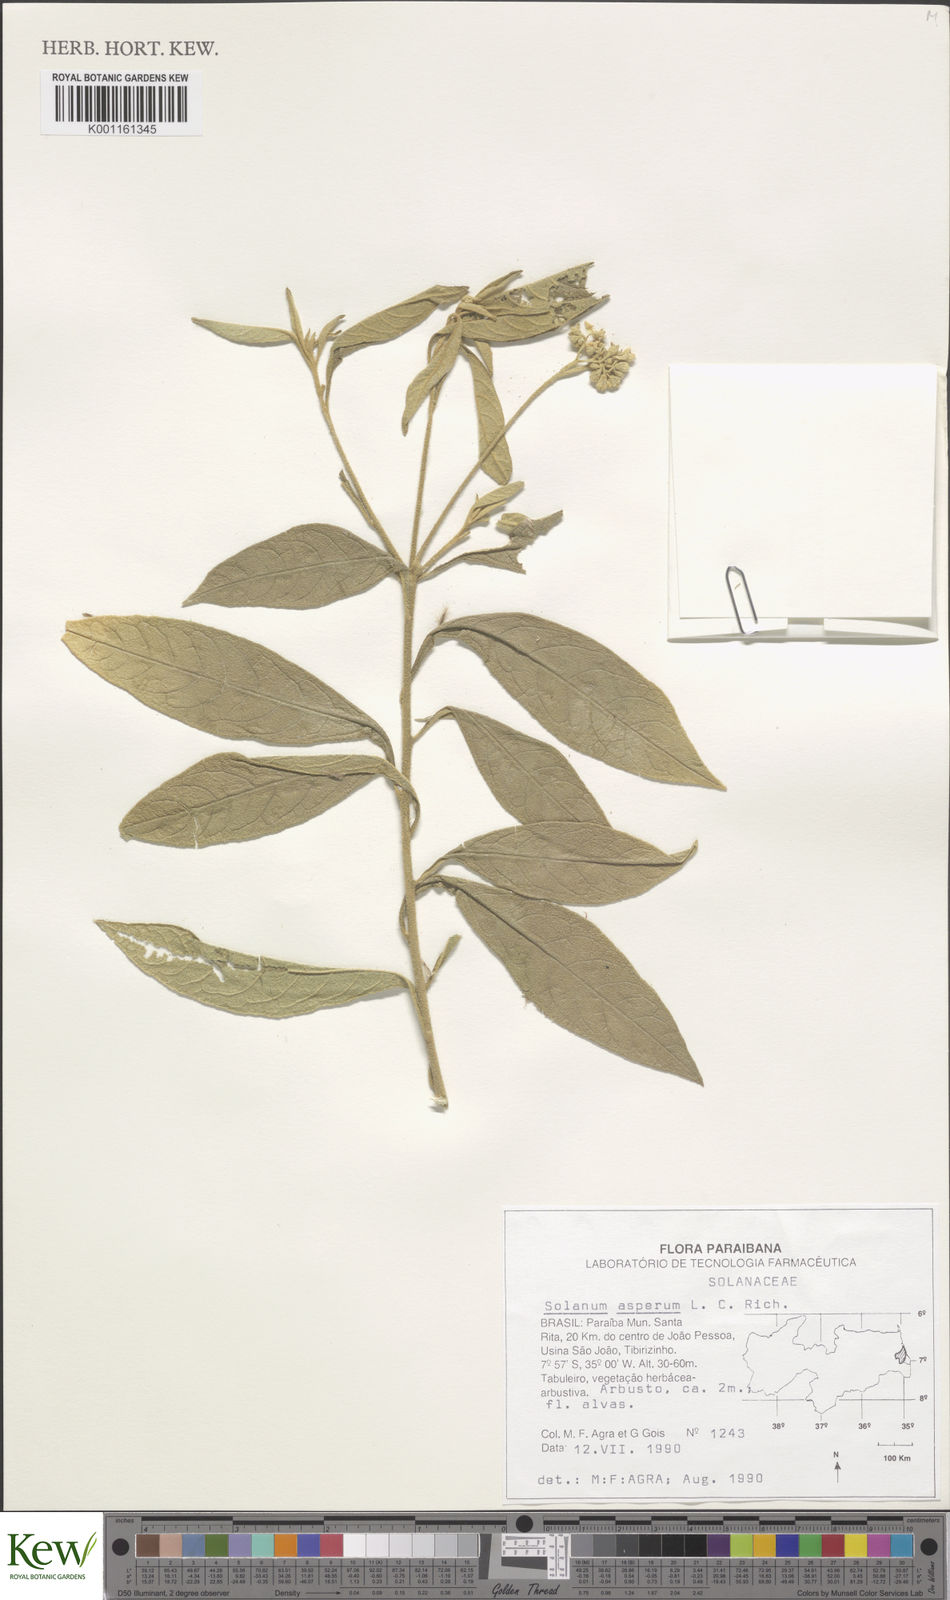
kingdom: Plantae
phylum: Tracheophyta
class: Magnoliopsida
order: Solanales
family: Solanaceae
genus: Solanum
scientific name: Solanum asperum
